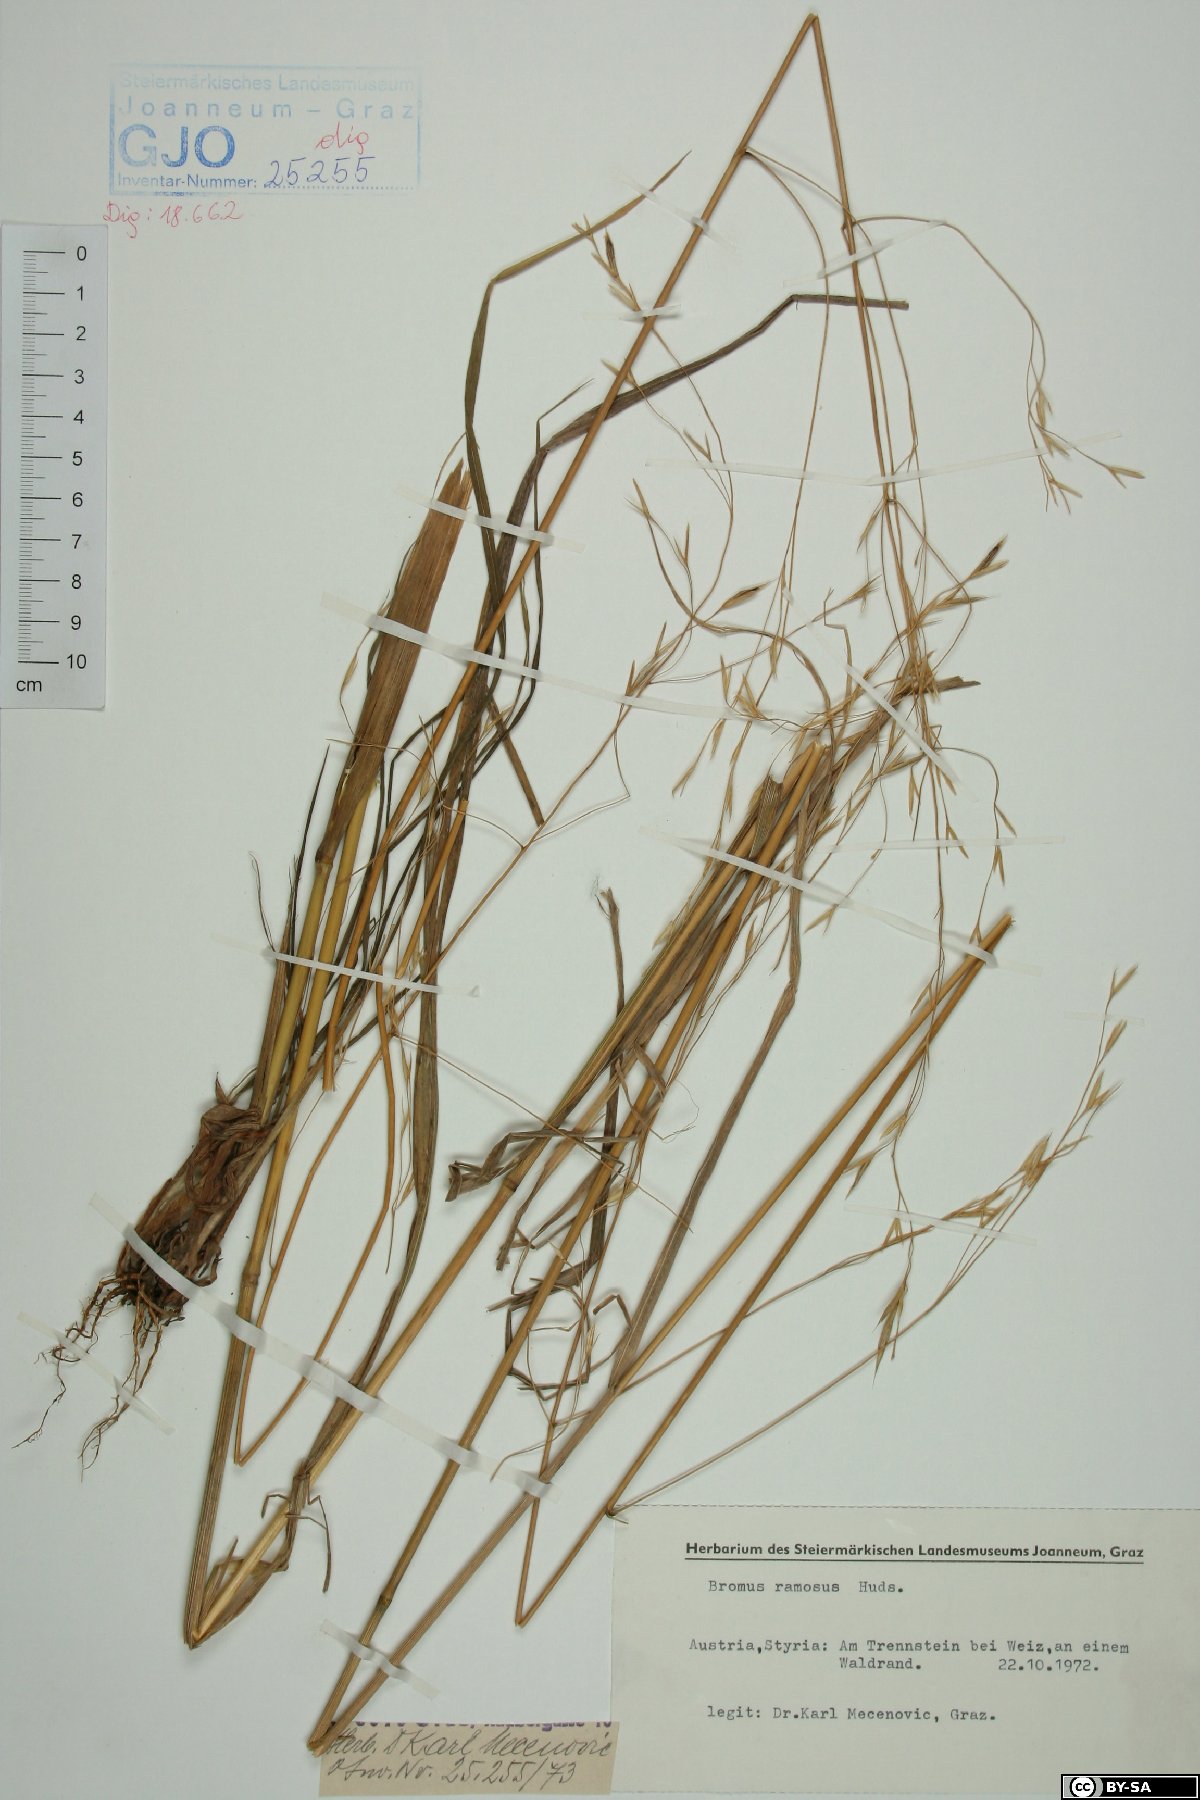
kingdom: Plantae
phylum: Tracheophyta
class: Liliopsida
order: Poales
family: Poaceae
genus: Bromus
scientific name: Bromus ramosus
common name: Hairy brome
